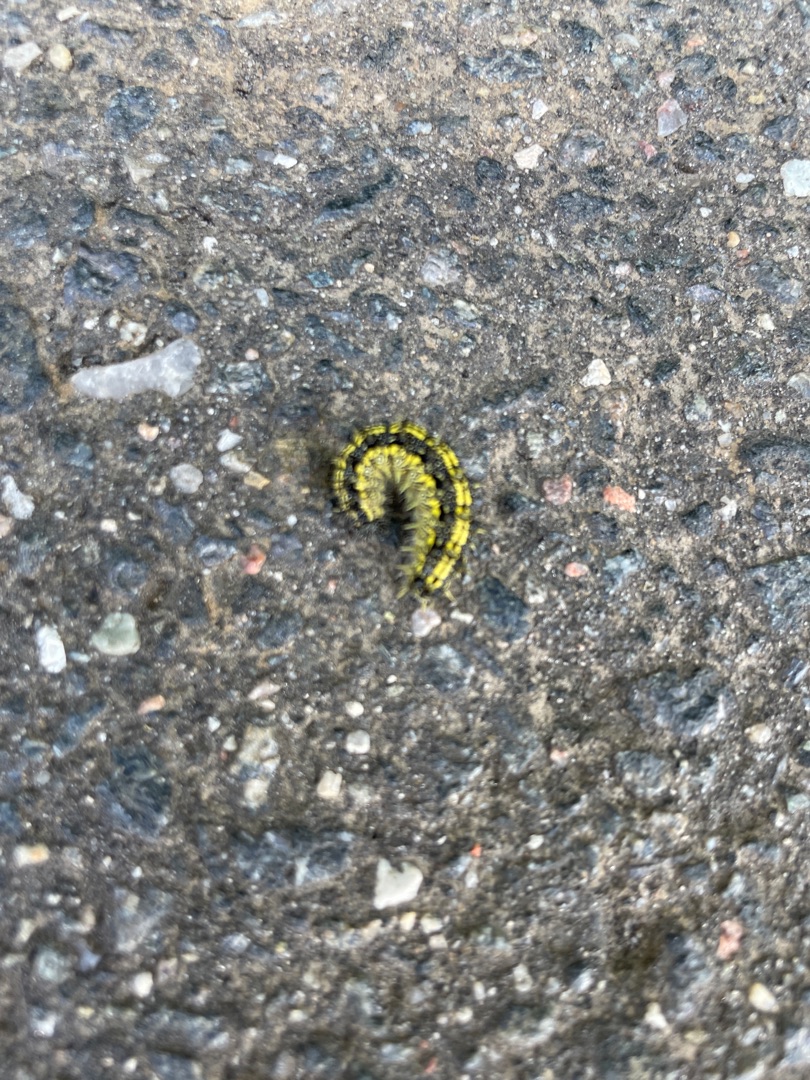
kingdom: Animalia
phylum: Arthropoda
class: Insecta
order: Lepidoptera
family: Nymphalidae
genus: Aglais
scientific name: Aglais urticae
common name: Nældens takvinge
